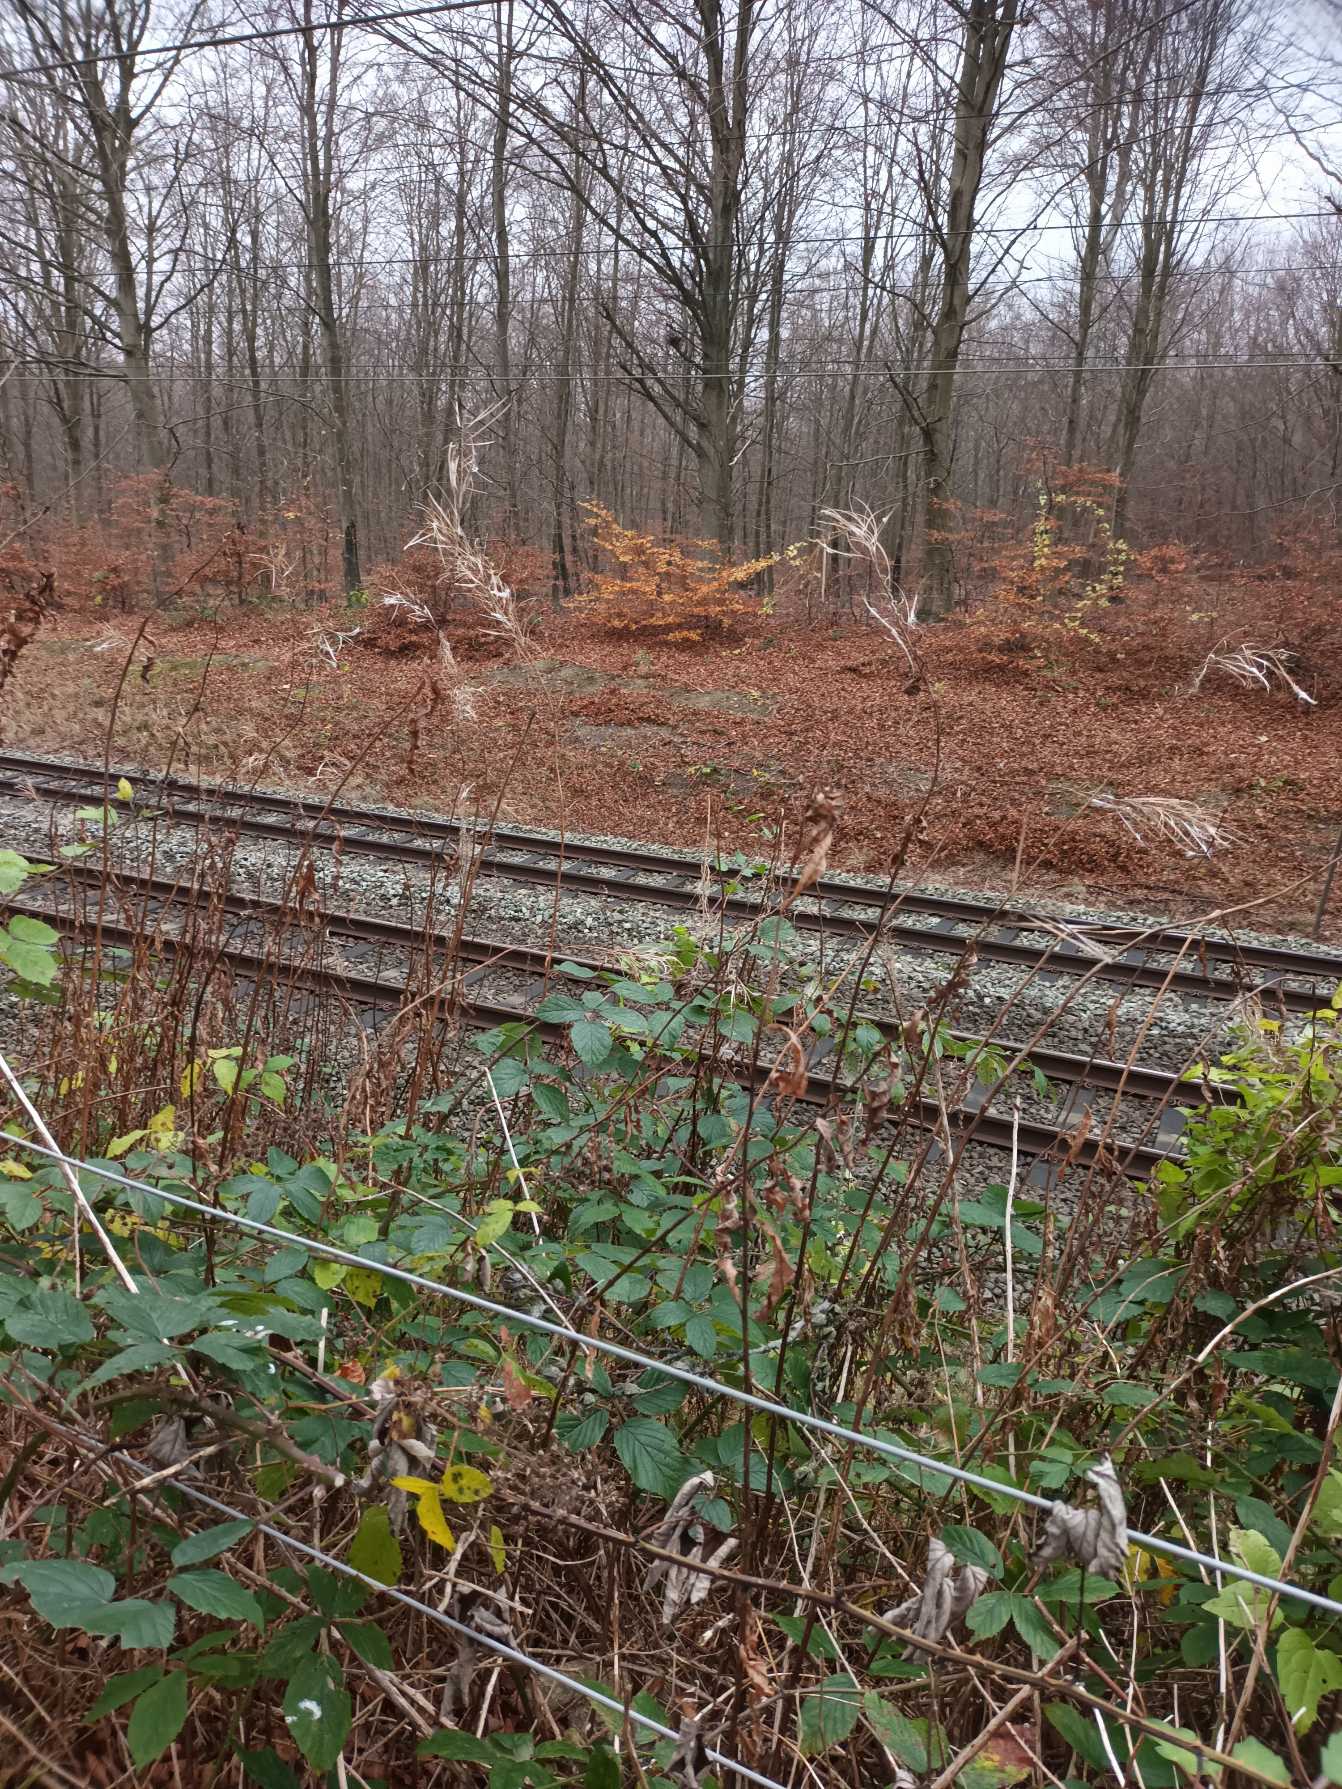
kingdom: Plantae
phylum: Tracheophyta
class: Magnoliopsida
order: Myrtales
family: Onagraceae
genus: Chamaenerion
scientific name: Chamaenerion angustifolium
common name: Gederams
